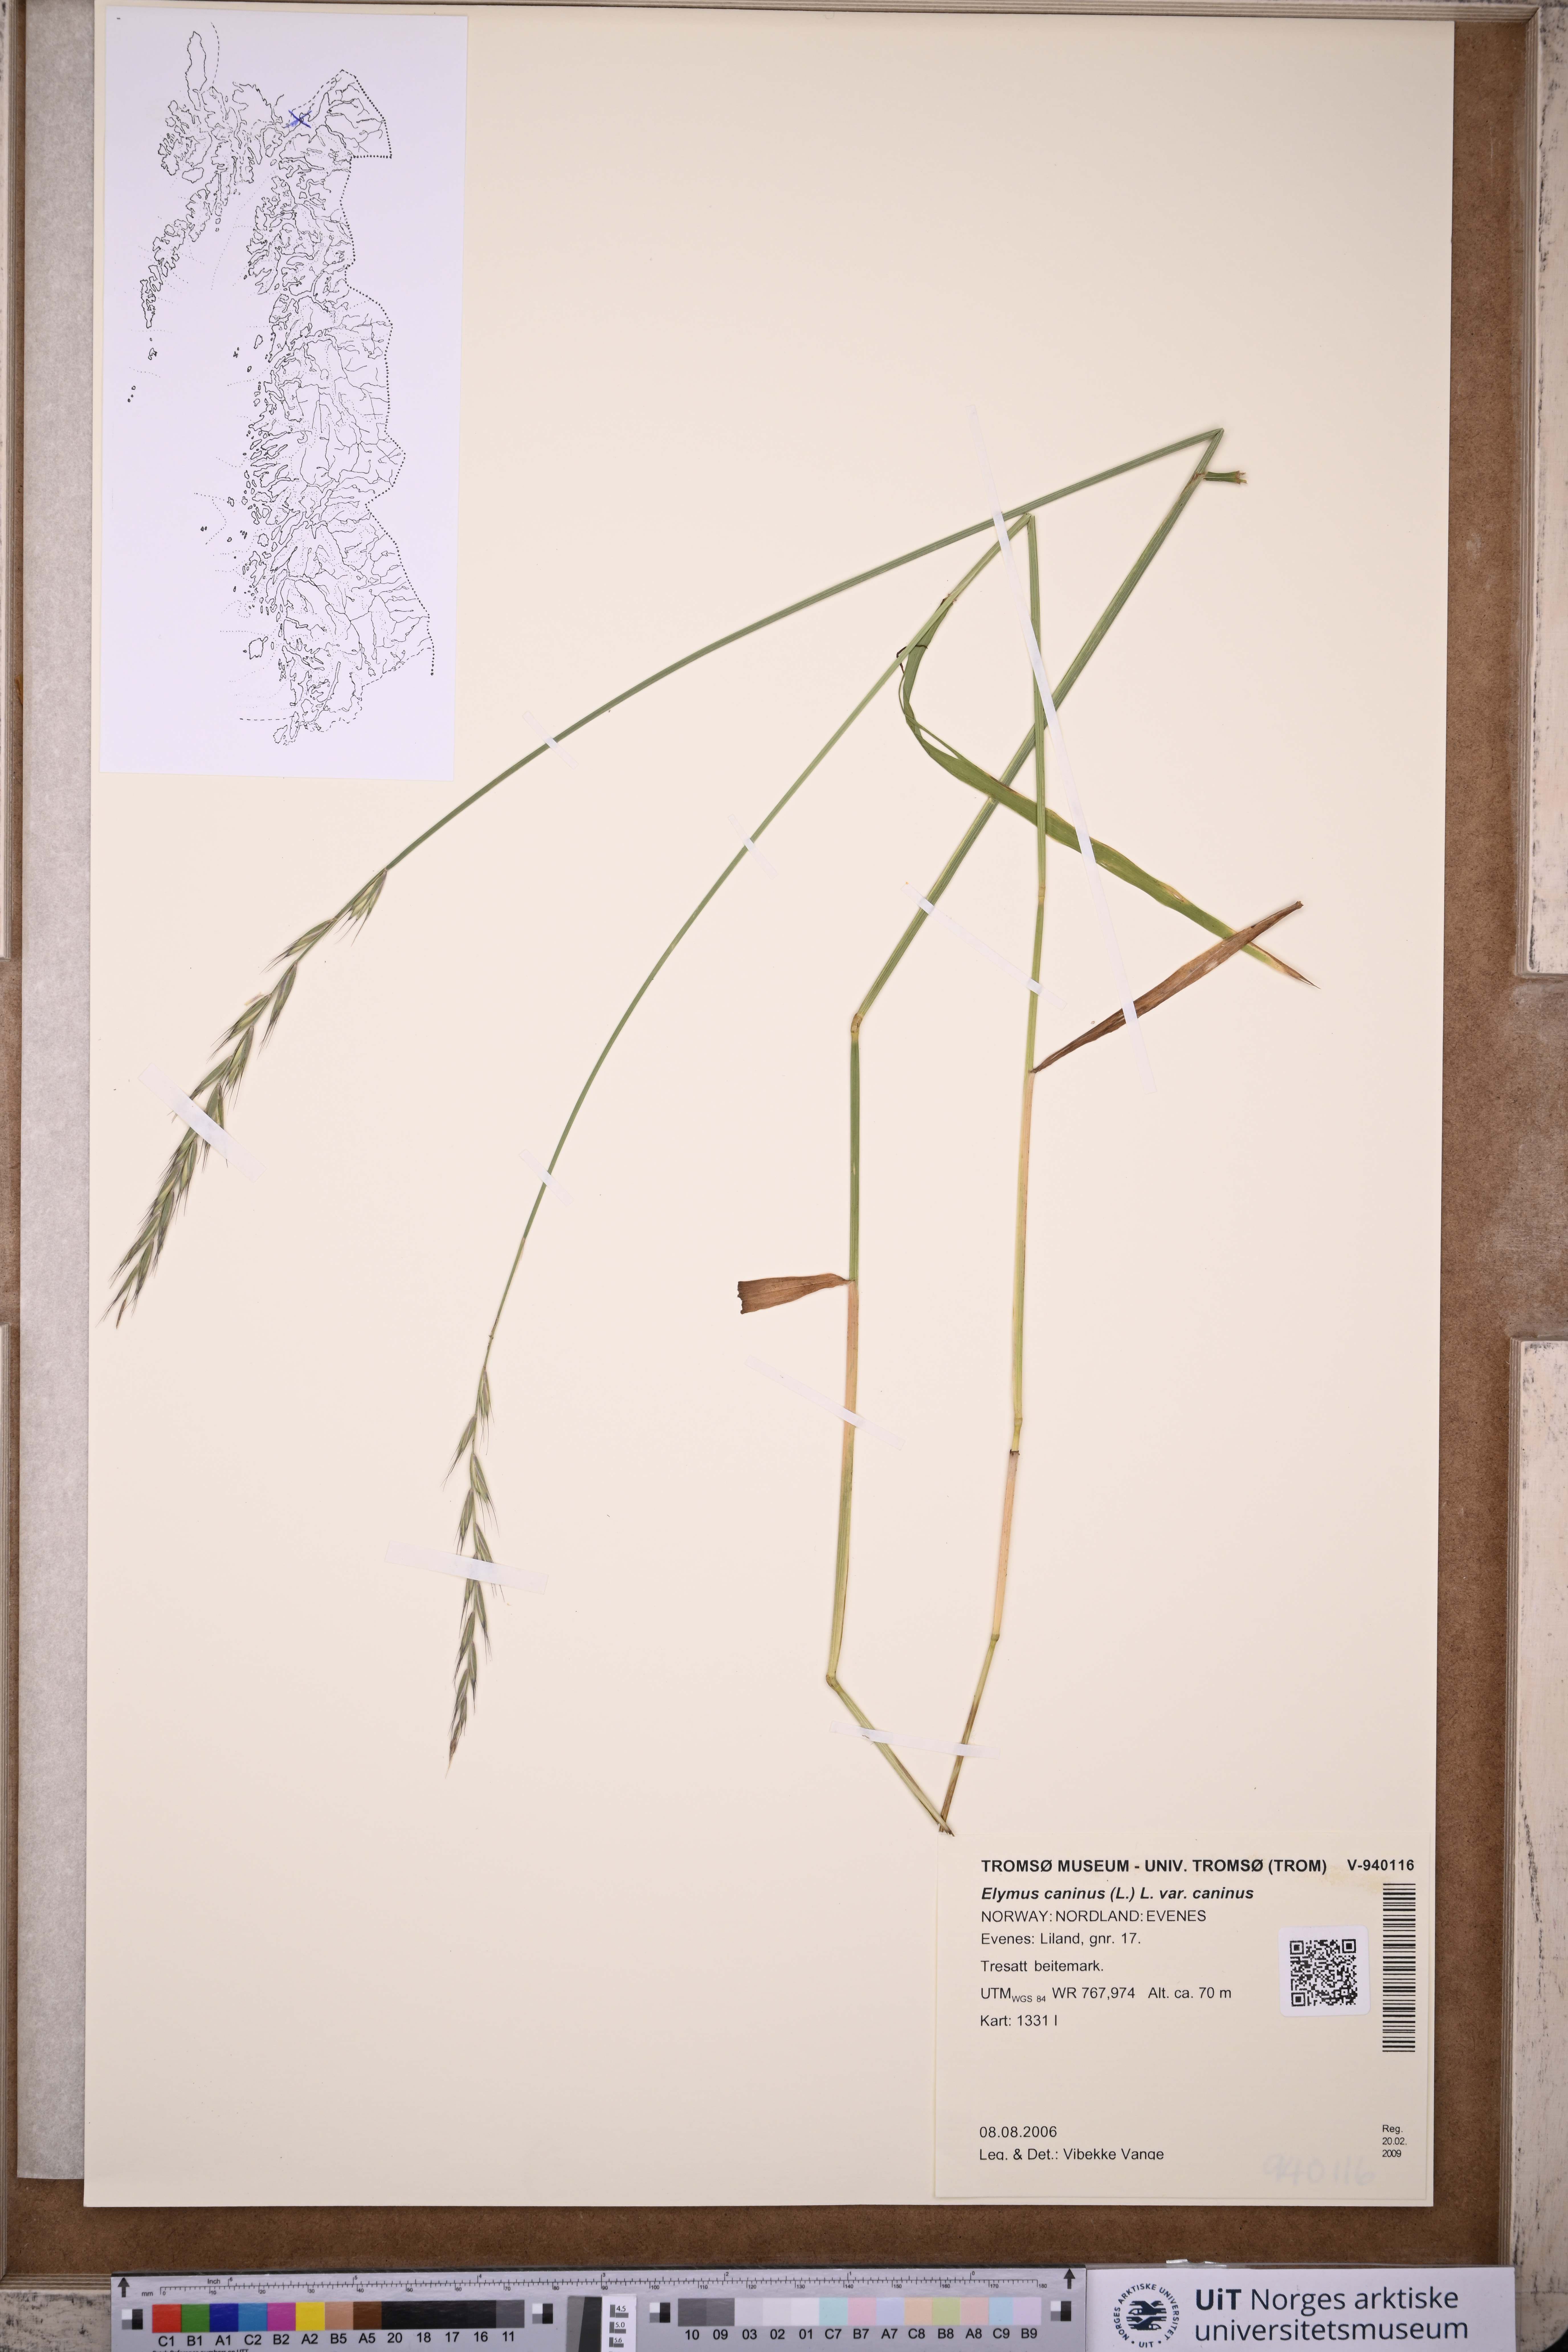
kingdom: Plantae
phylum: Tracheophyta
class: Liliopsida
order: Poales
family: Poaceae
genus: Elymus
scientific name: Elymus caninus
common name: Bearded couch
